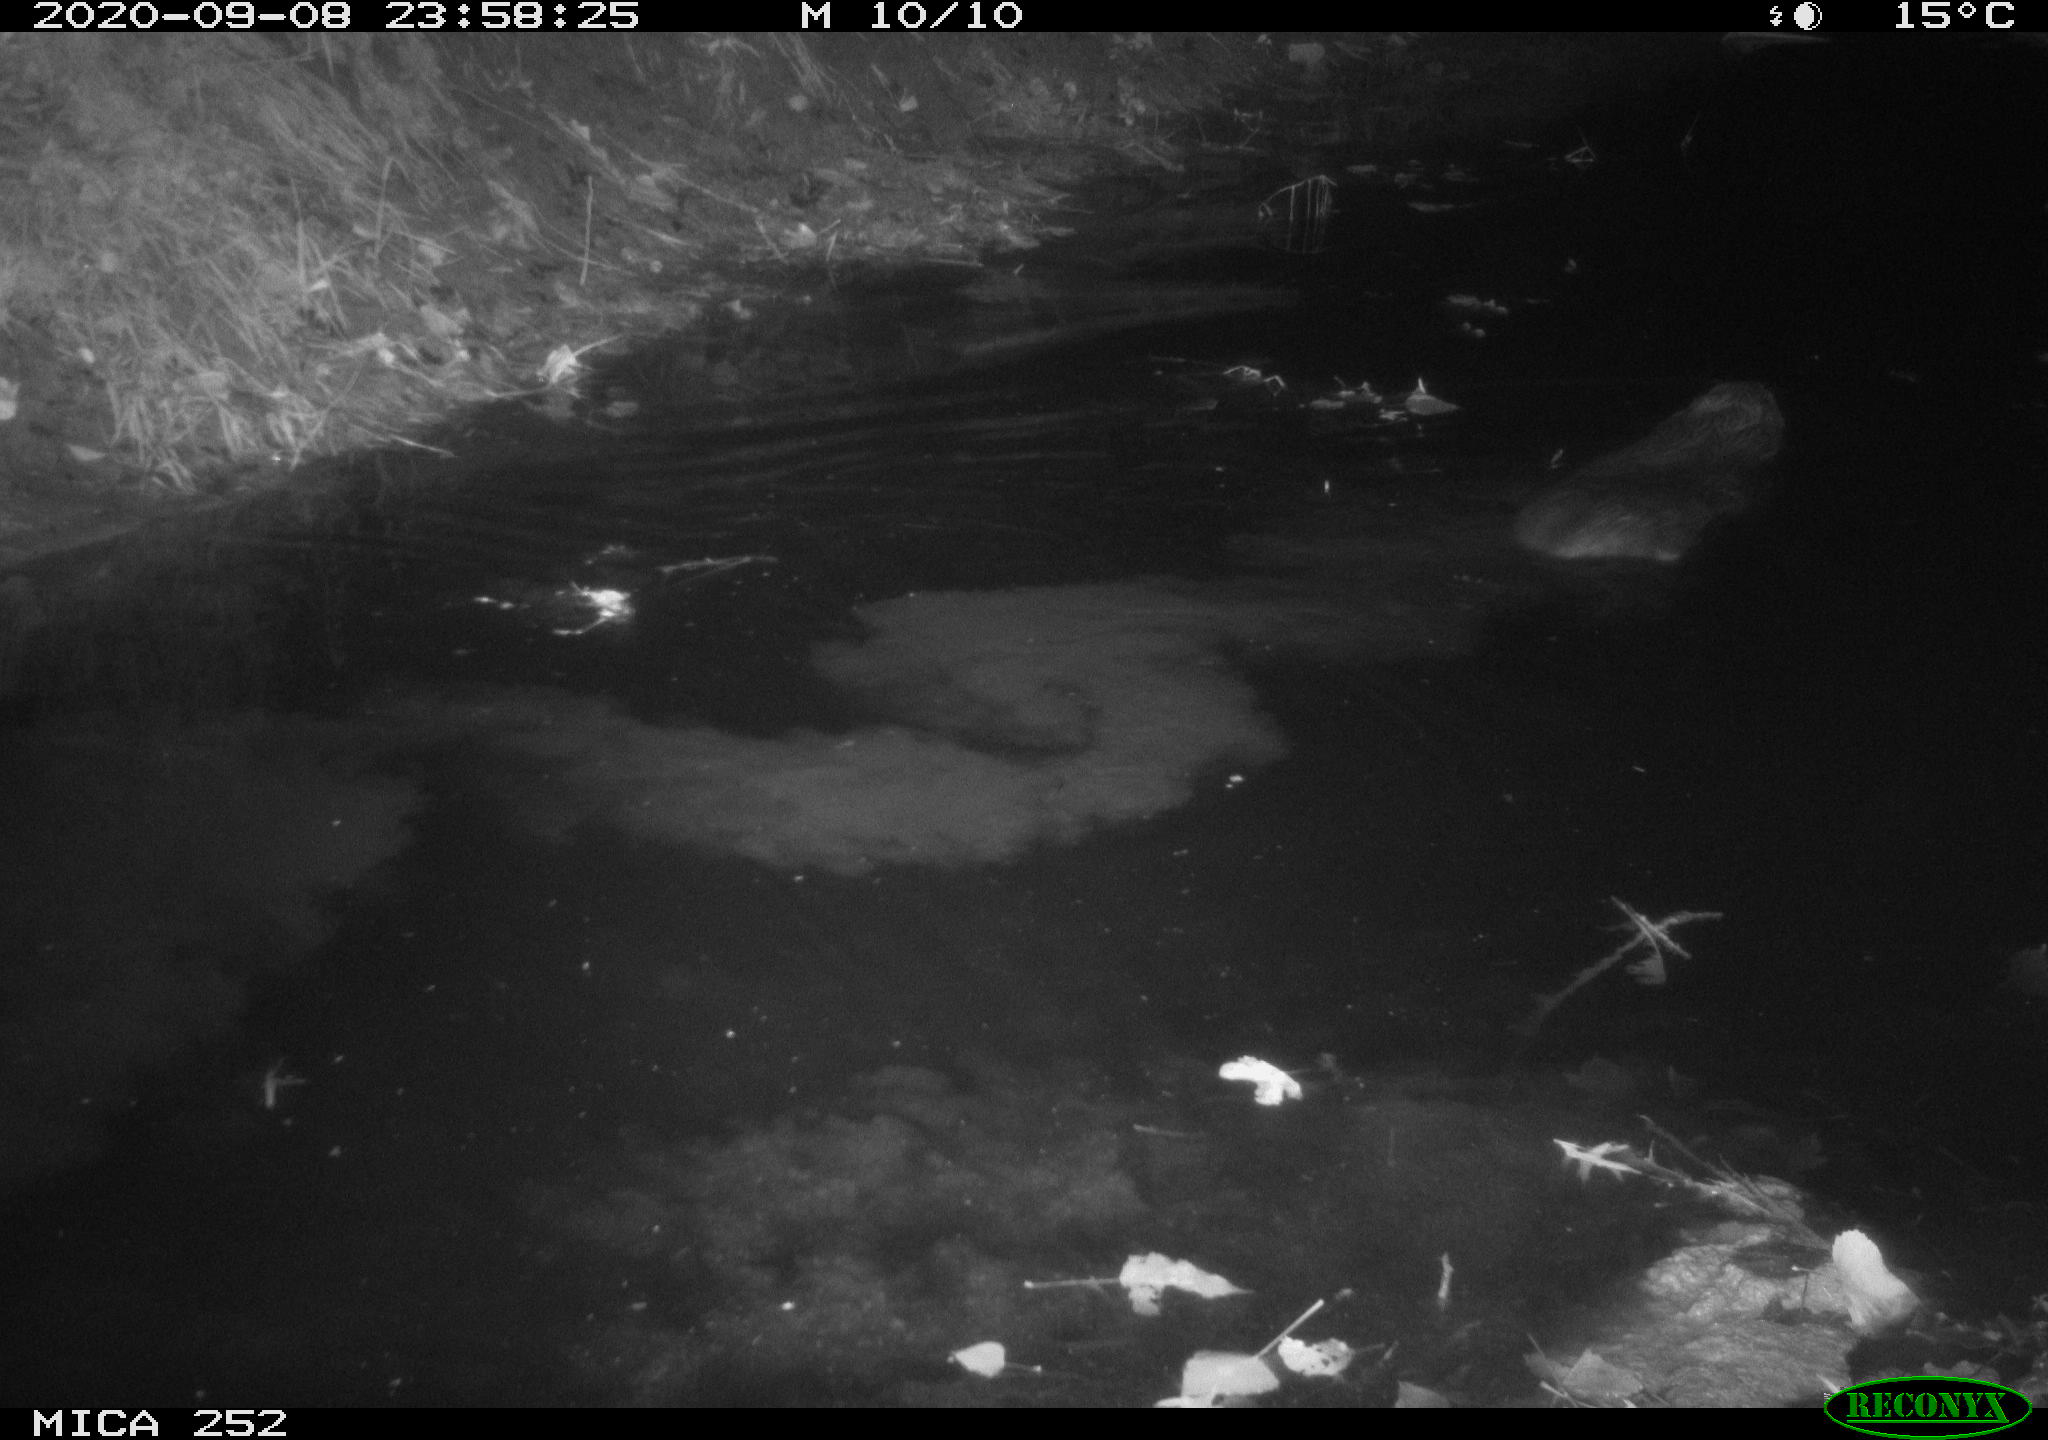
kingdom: Animalia
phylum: Chordata
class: Mammalia
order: Rodentia
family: Castoridae
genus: Castor
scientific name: Castor fiber
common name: Eurasian beaver
